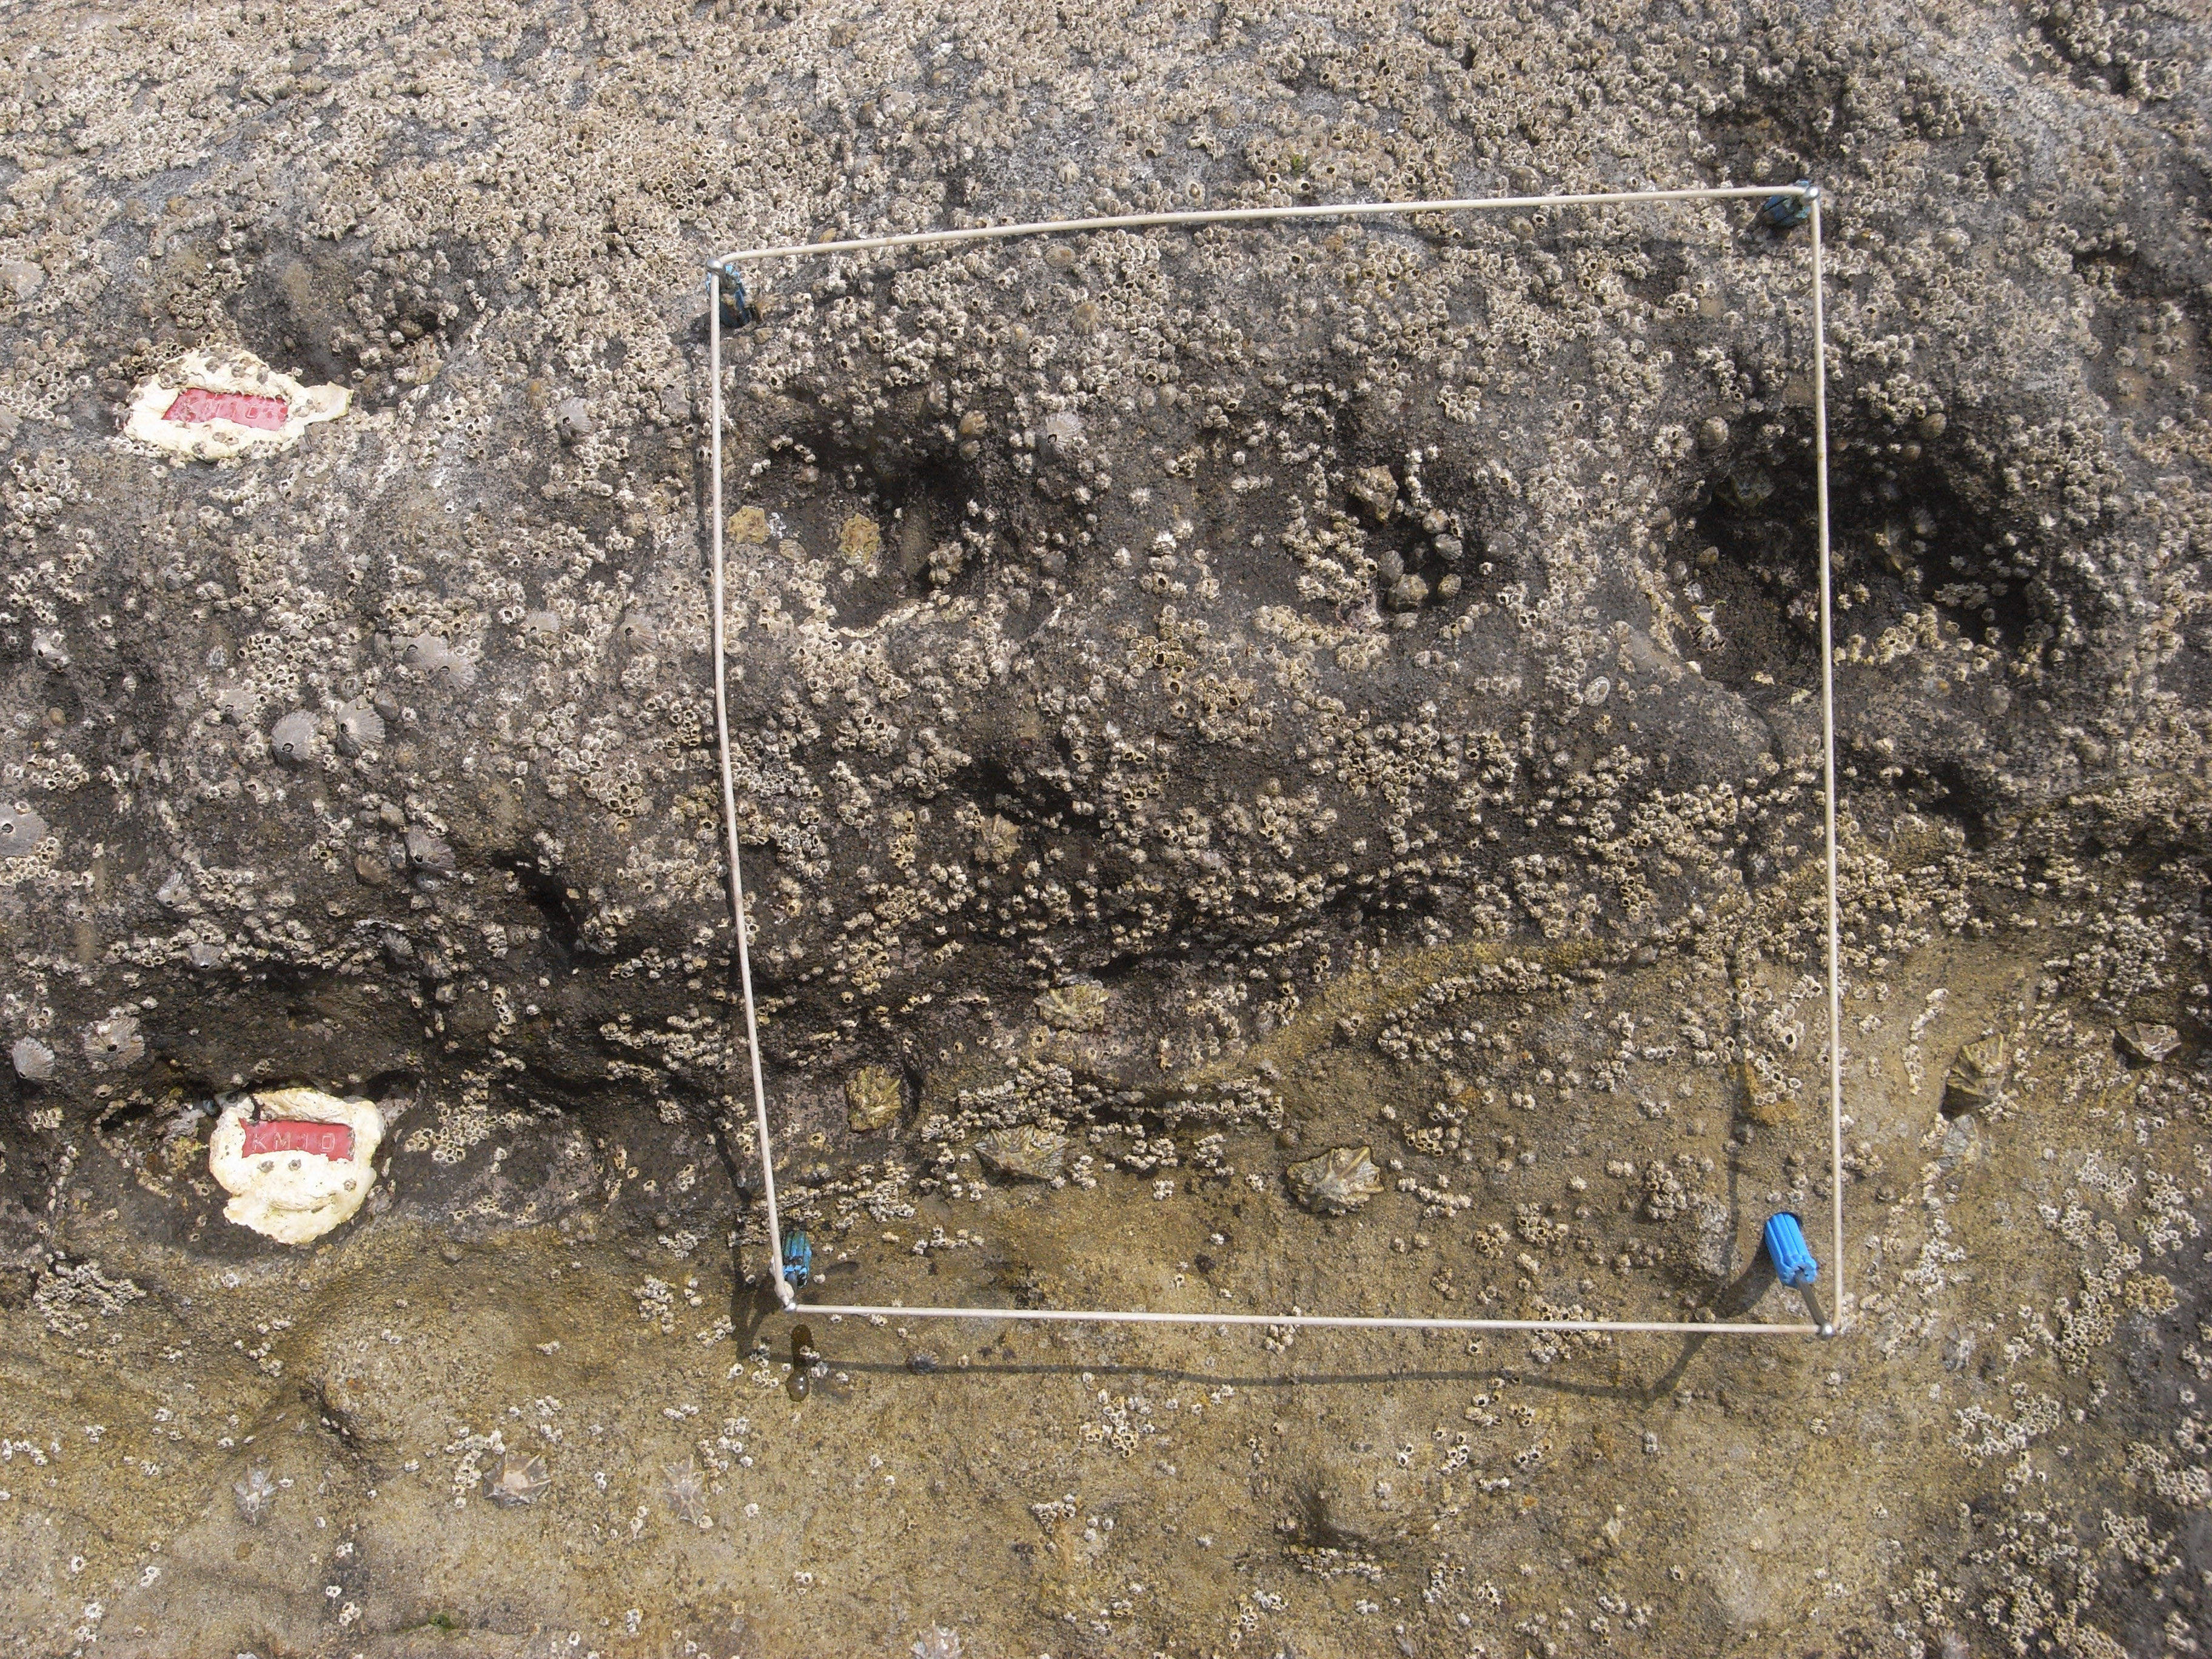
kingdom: Animalia
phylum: Arthropoda
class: Maxillopoda
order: Sessilia
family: Chthamalidae
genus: Chthamalus
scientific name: Chthamalus challengeri
